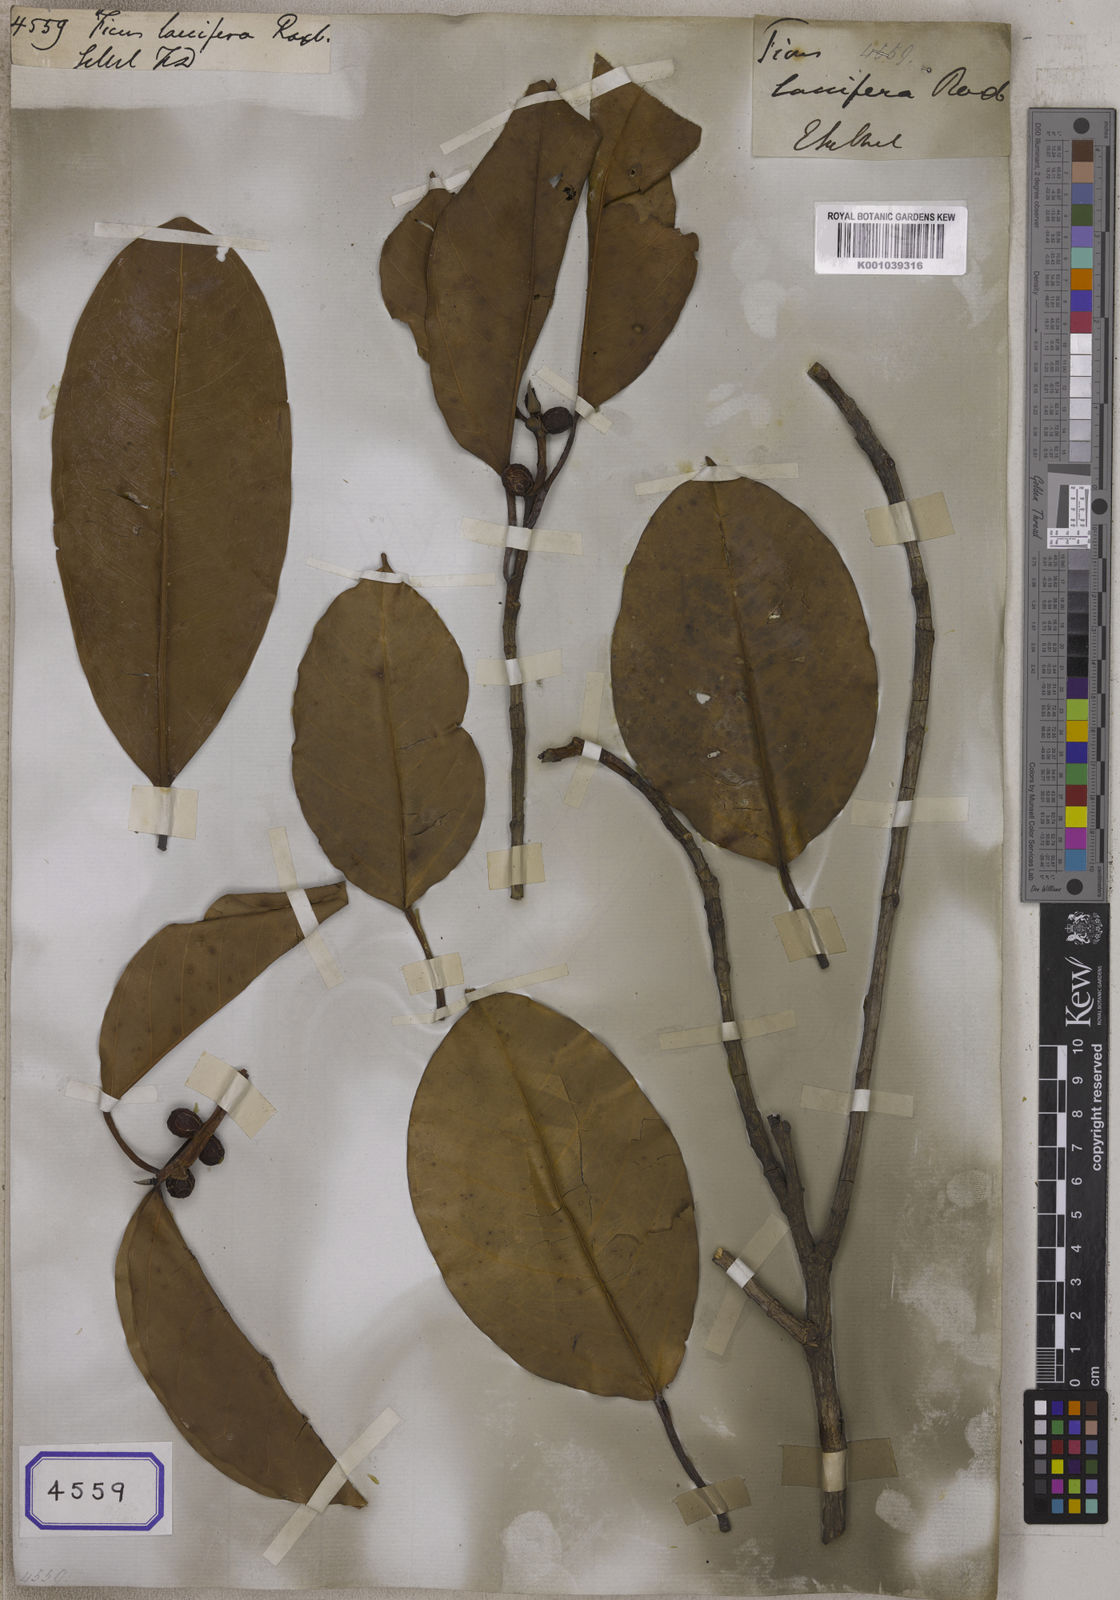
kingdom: Plantae
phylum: Tracheophyta
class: Magnoliopsida
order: Rosales
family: Moraceae
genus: Ficus
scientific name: Ficus altissima
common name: Council tree
